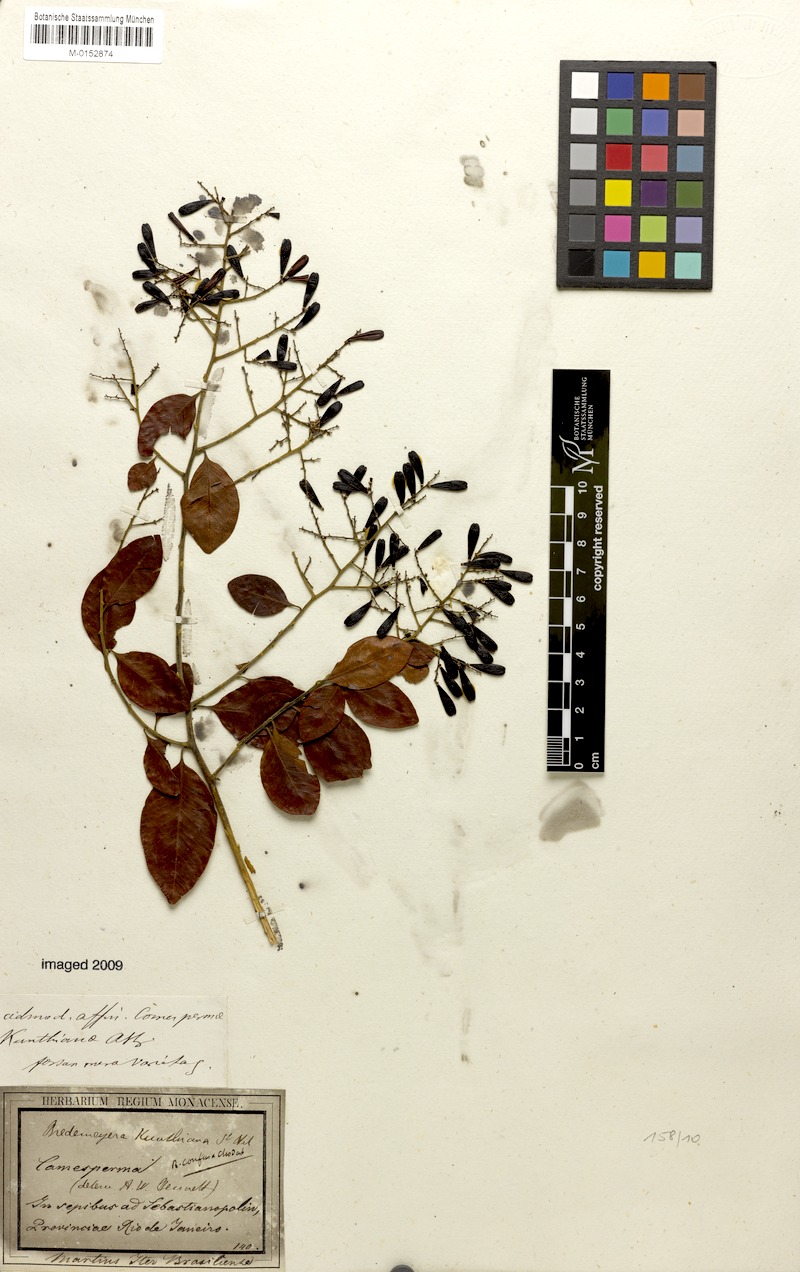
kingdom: Plantae
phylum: Tracheophyta
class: Magnoliopsida
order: Fabales
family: Polygalaceae
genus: Bredemeyera
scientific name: Bredemeyera hebeclada
